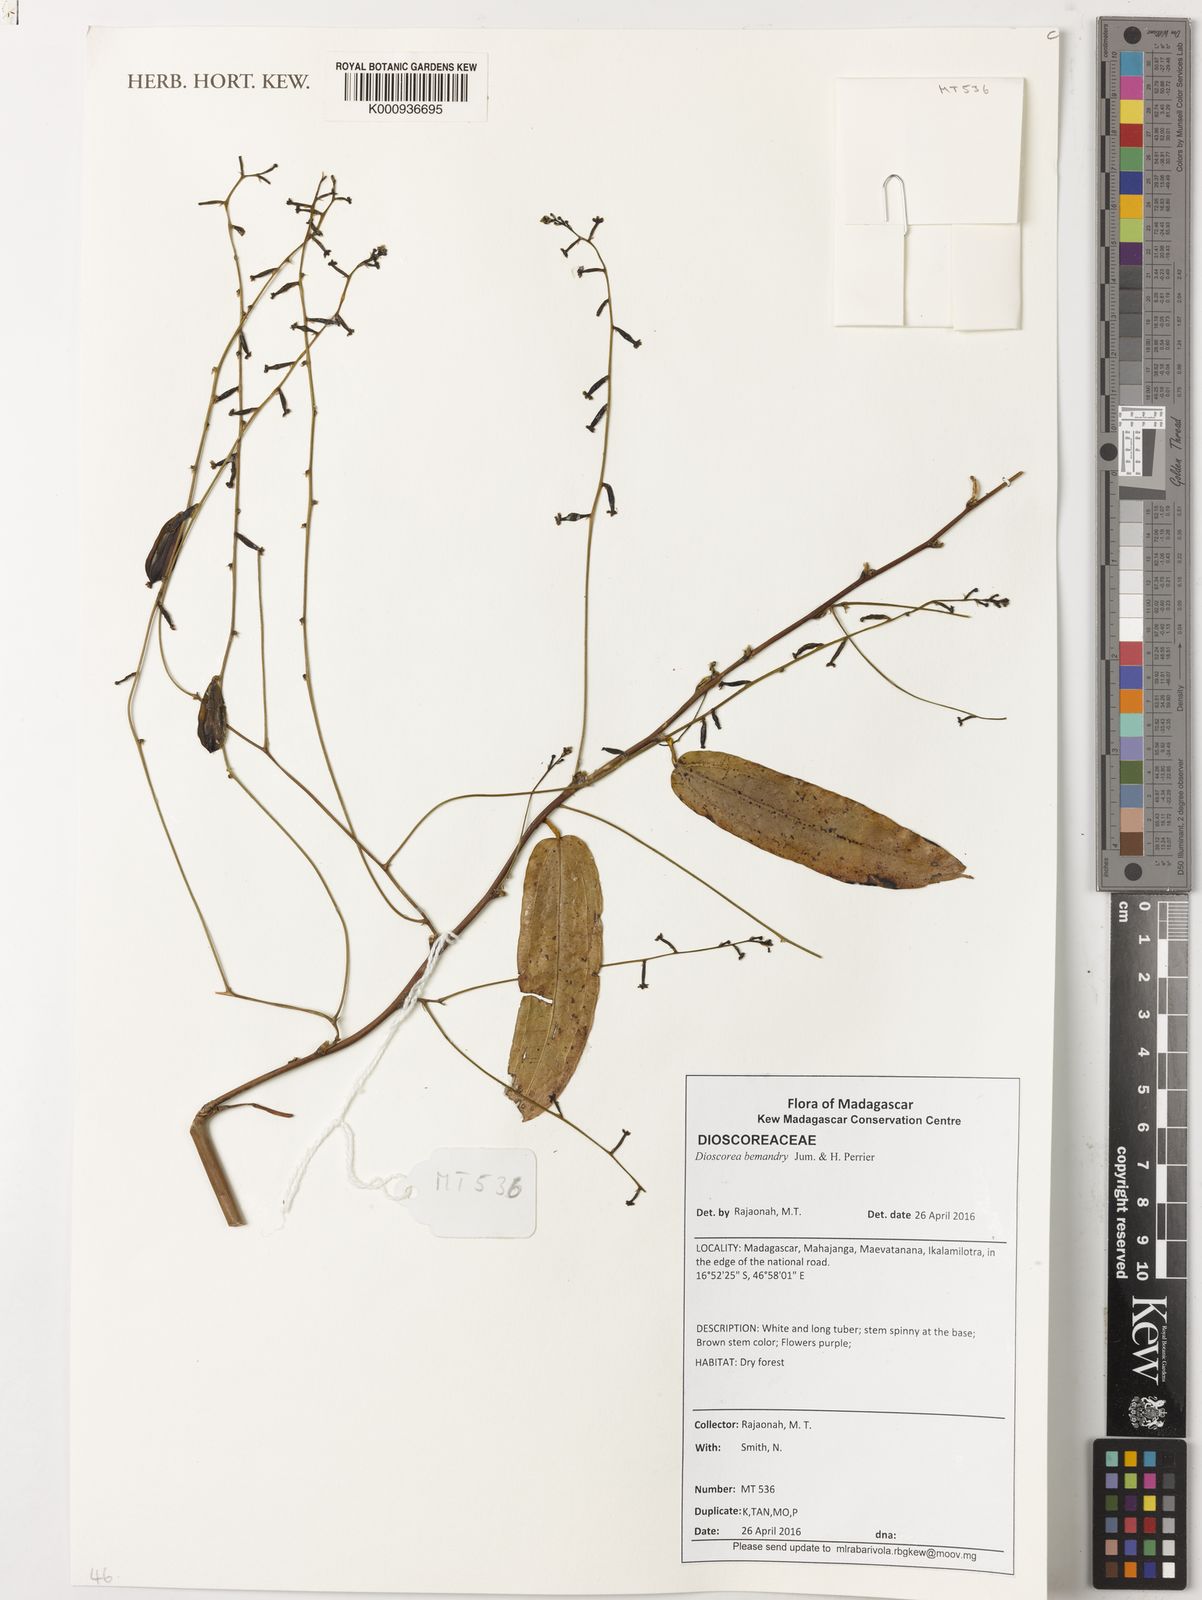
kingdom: Plantae
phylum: Tracheophyta
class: Liliopsida
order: Dioscoreales
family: Dioscoreaceae
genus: Dioscorea
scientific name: Dioscorea bemandry
